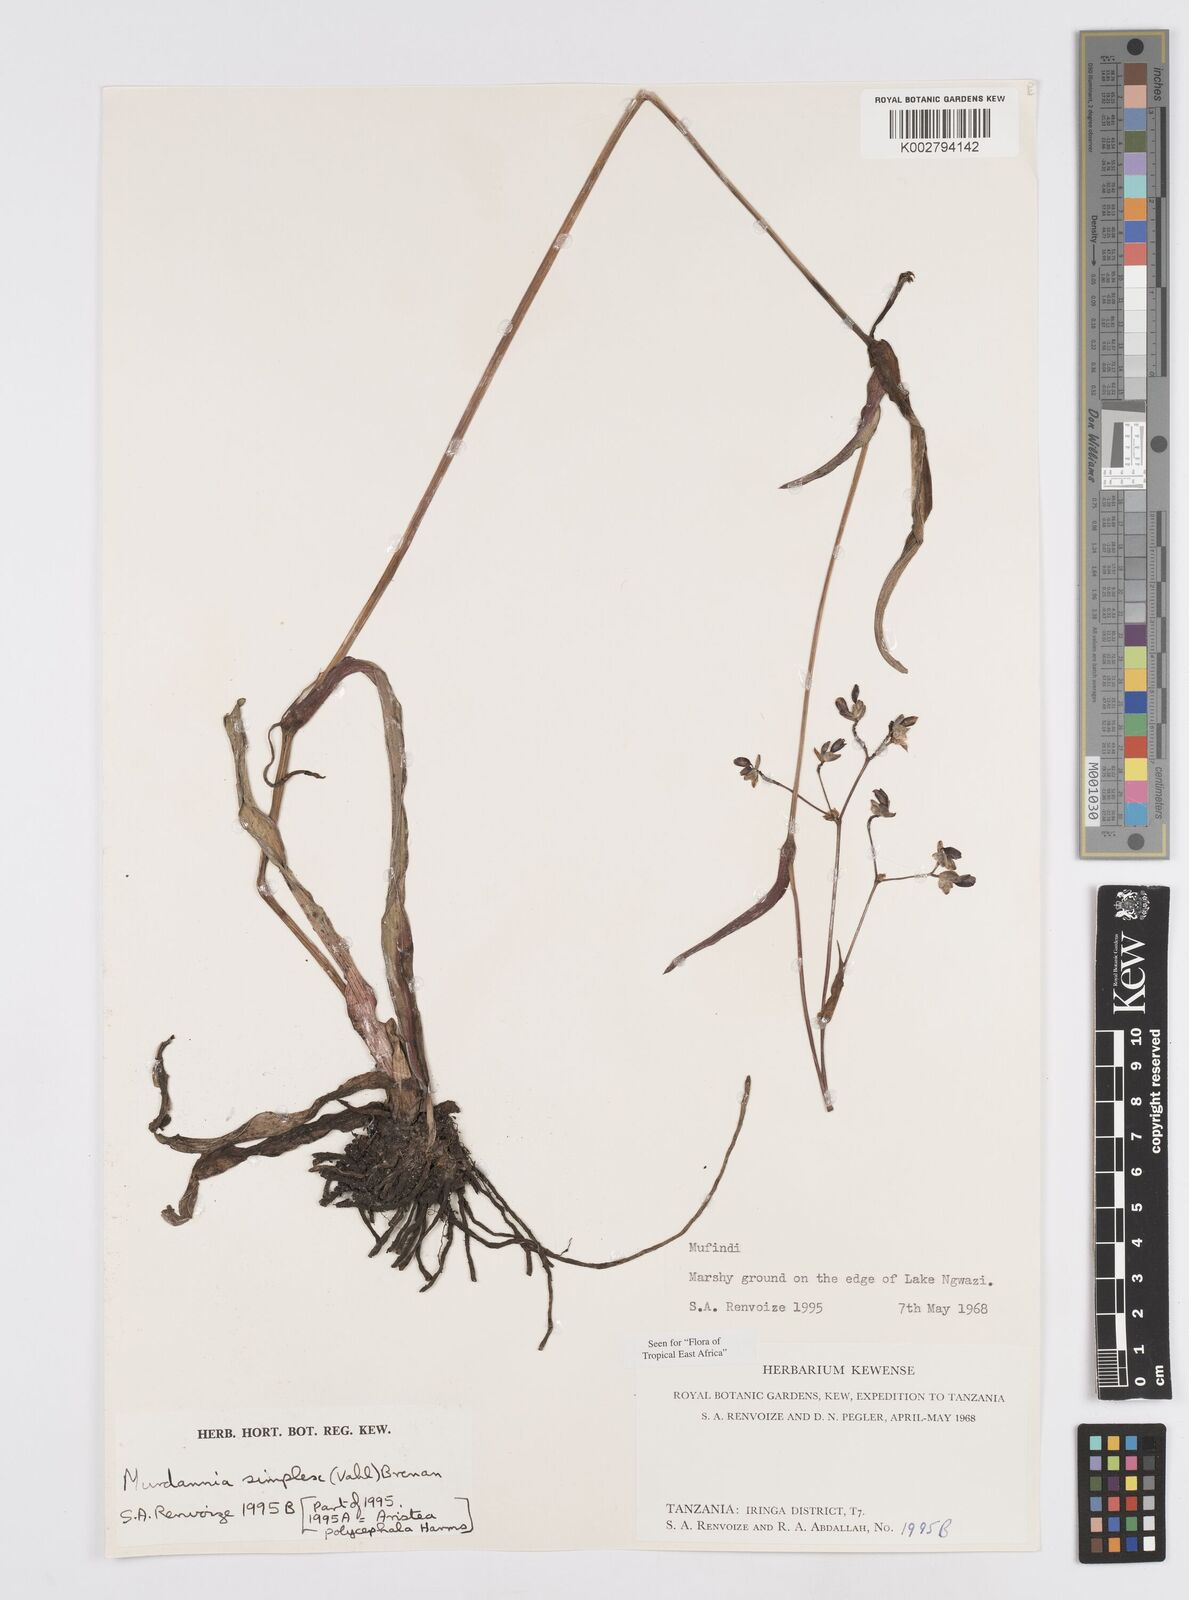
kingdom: Plantae
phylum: Tracheophyta
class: Liliopsida
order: Commelinales
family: Commelinaceae
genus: Murdannia
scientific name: Murdannia simplex
